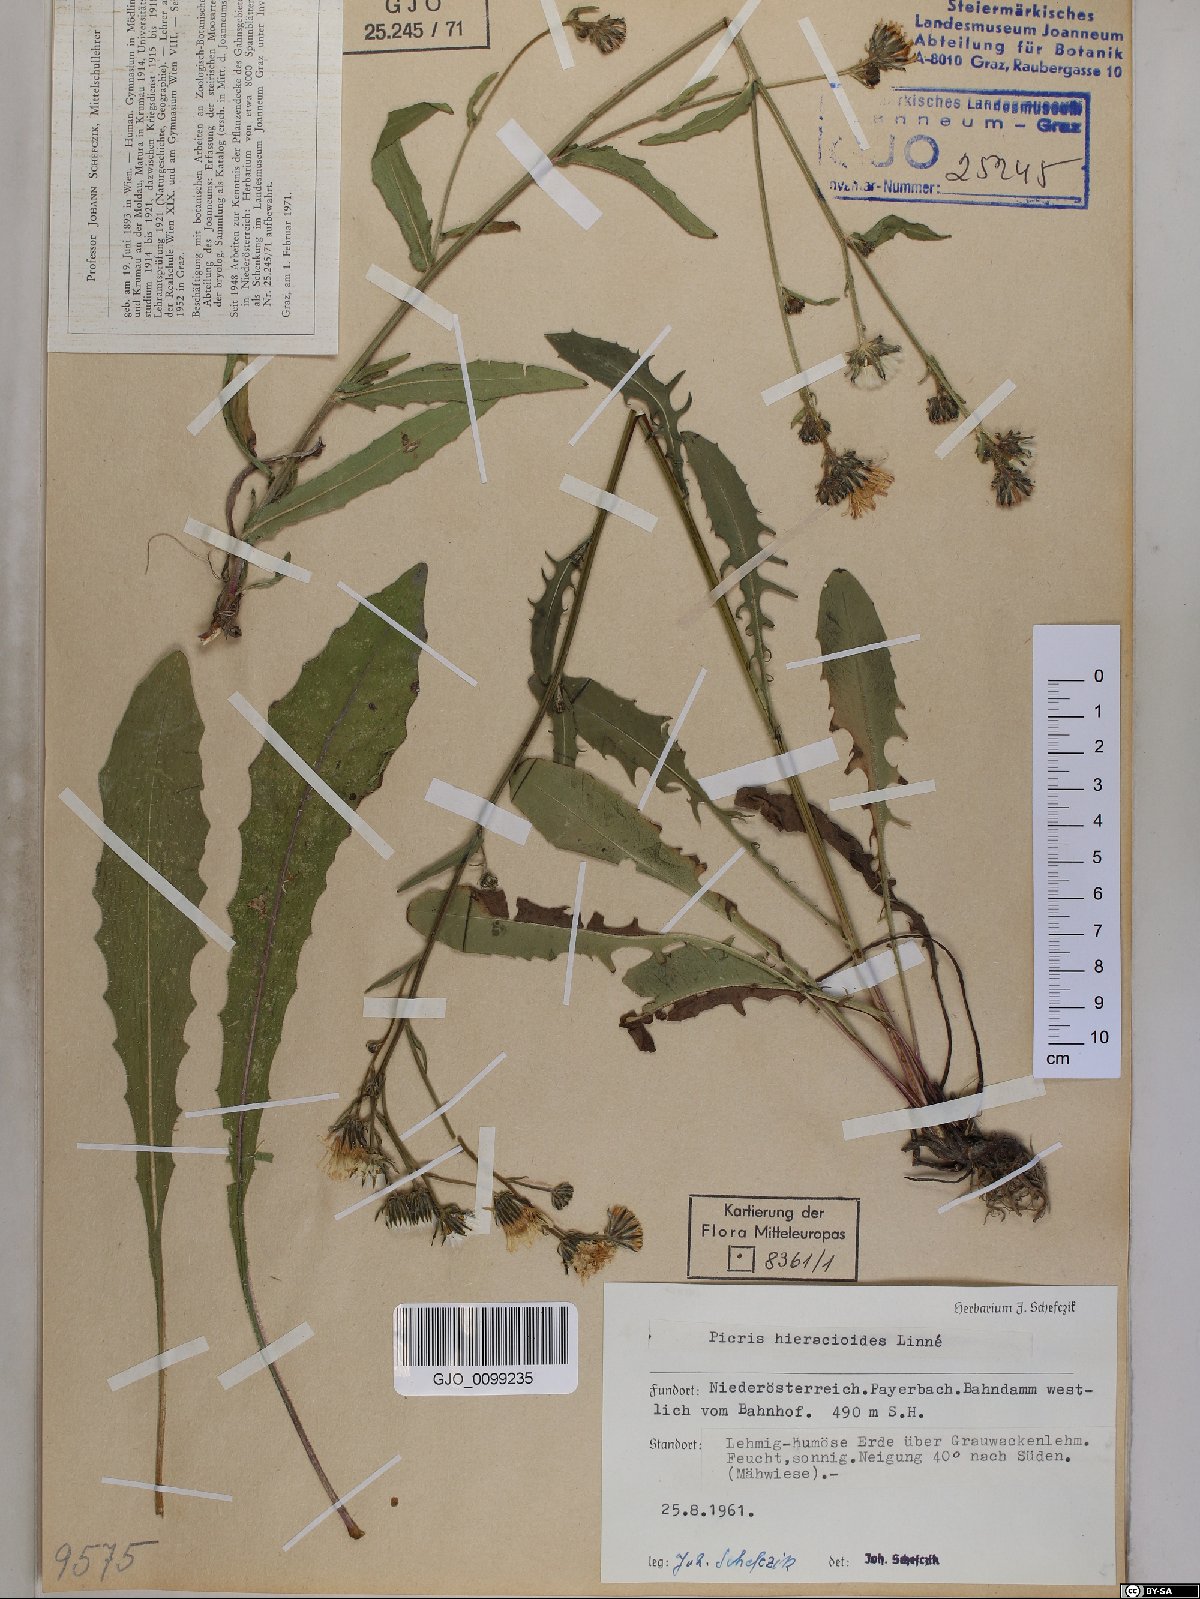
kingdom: Plantae
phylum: Tracheophyta
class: Magnoliopsida
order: Asterales
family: Asteraceae
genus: Picris
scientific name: Picris hieracioides
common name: Hawkweed oxtongue
